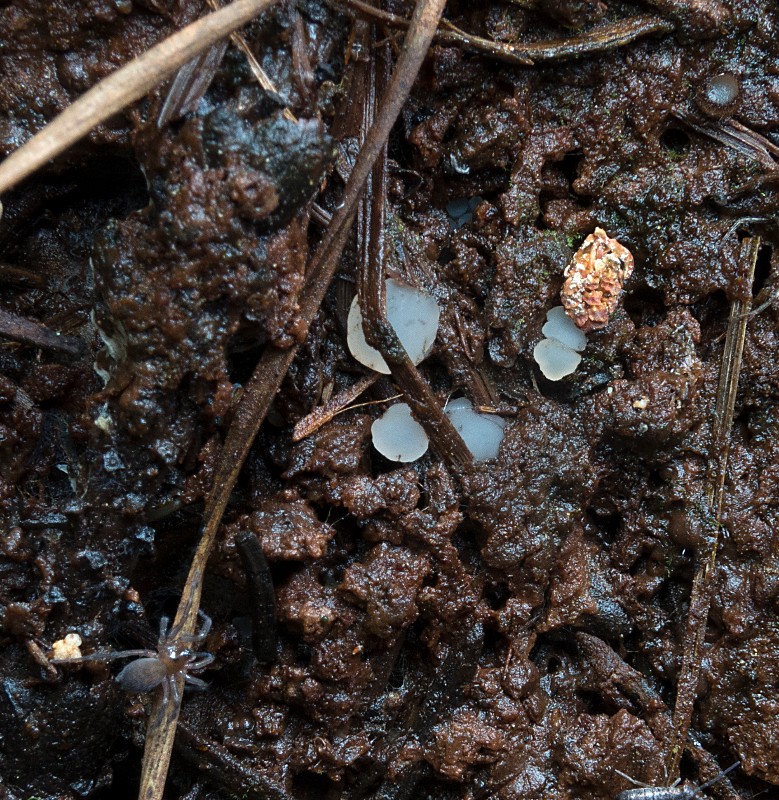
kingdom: Fungi
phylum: Ascomycota
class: Leotiomycetes
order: Helotiales
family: Tricladiaceae
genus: Cudoniella
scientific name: Cudoniella
